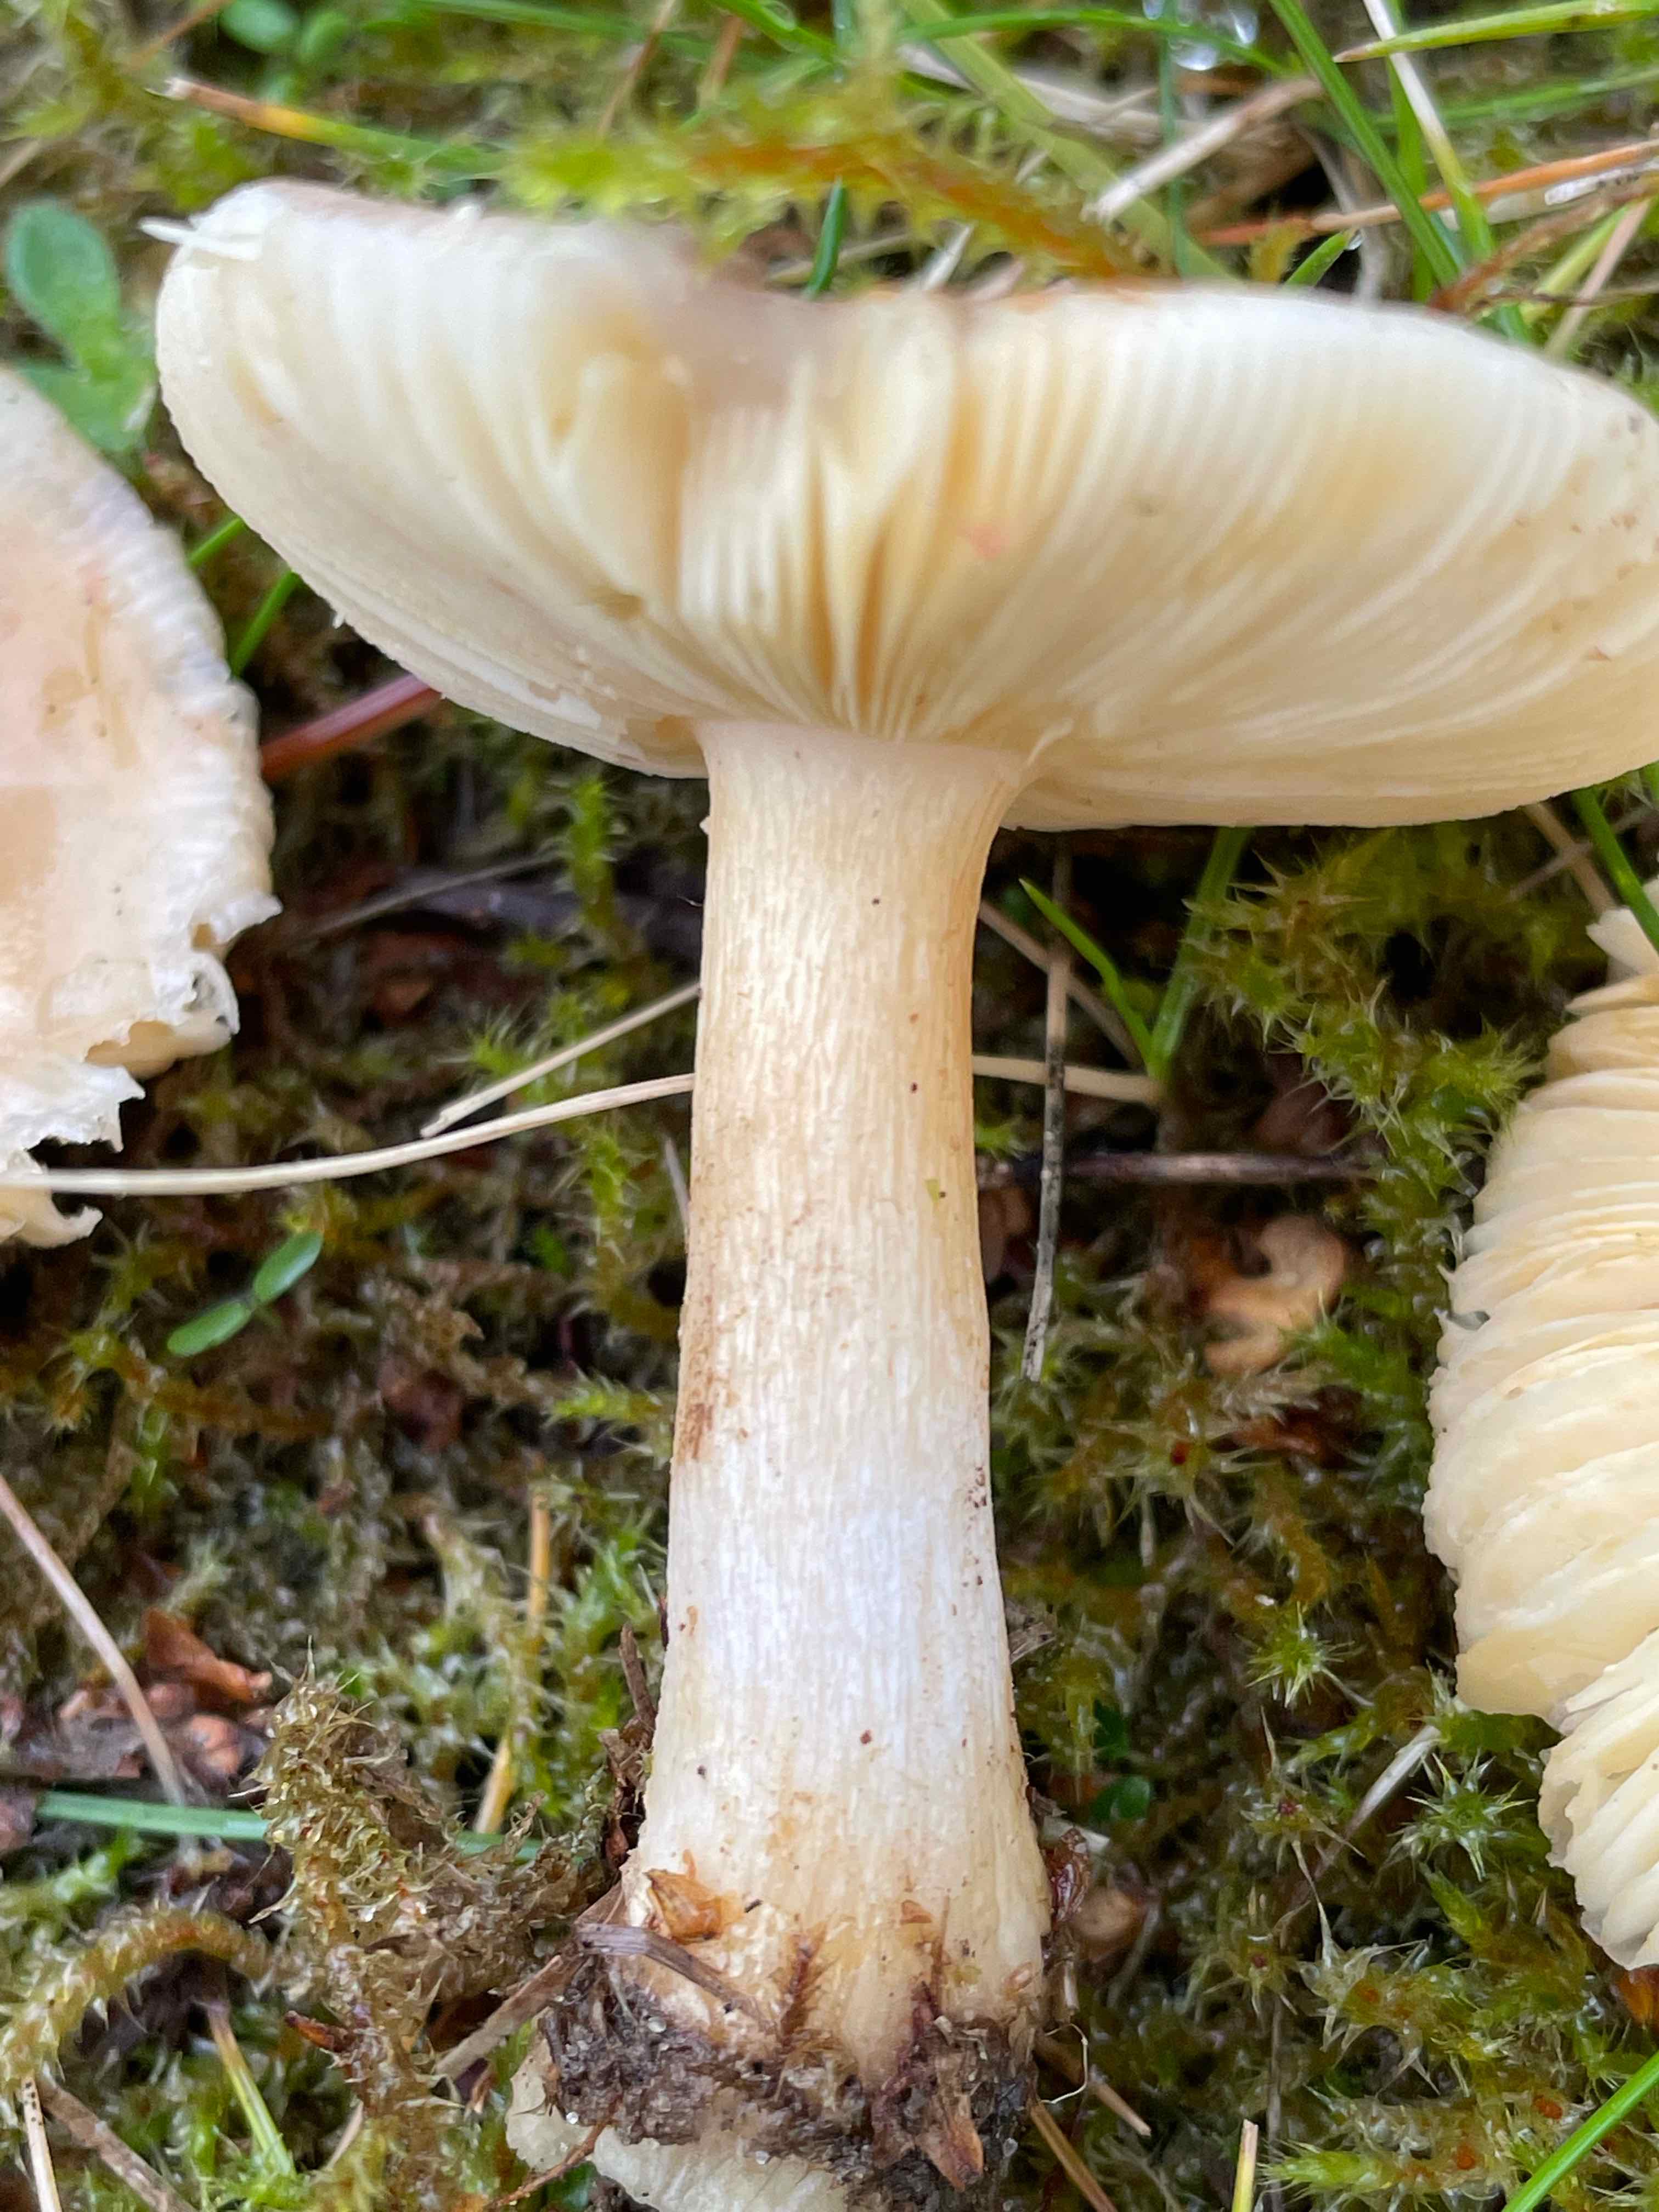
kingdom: Fungi
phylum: Basidiomycota
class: Agaricomycetes
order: Russulales
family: Russulaceae
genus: Russula
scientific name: Russula versicolor
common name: foranderlig skørhat
